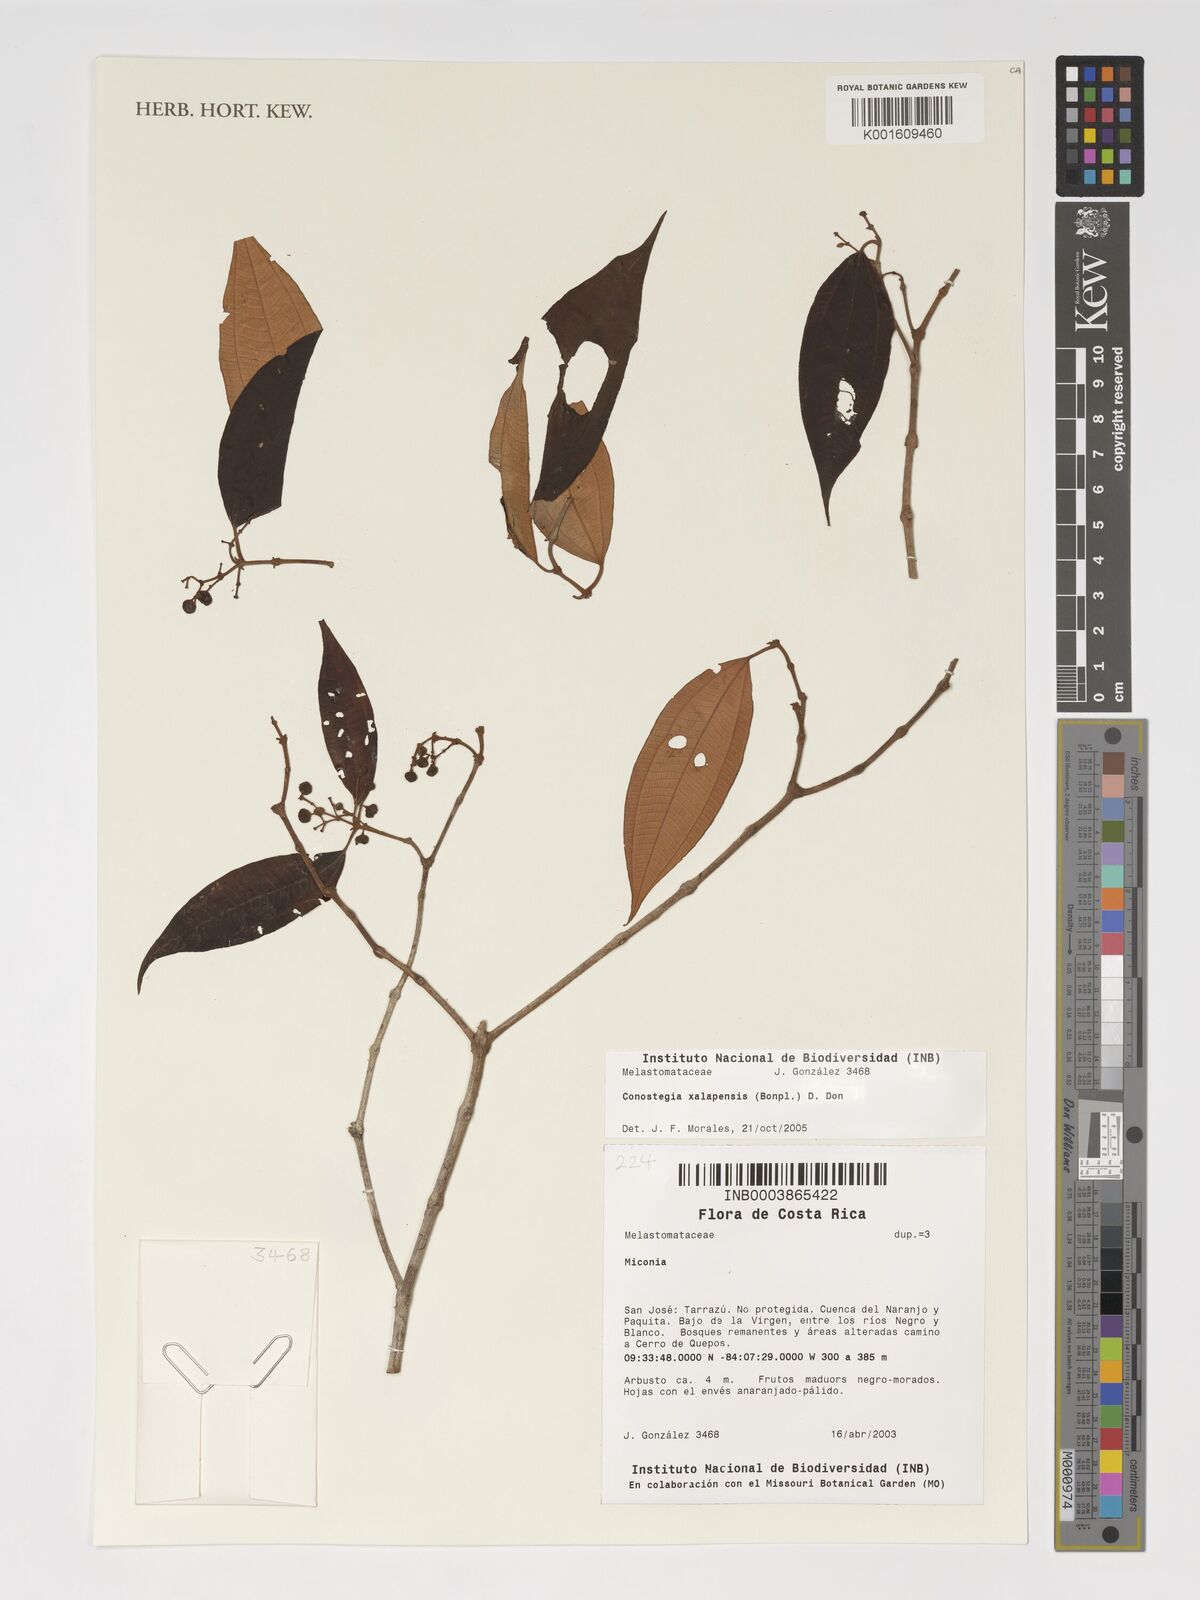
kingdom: Plantae
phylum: Tracheophyta
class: Magnoliopsida
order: Myrtales
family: Melastomataceae
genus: Miconia
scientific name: Miconia xalapensis
